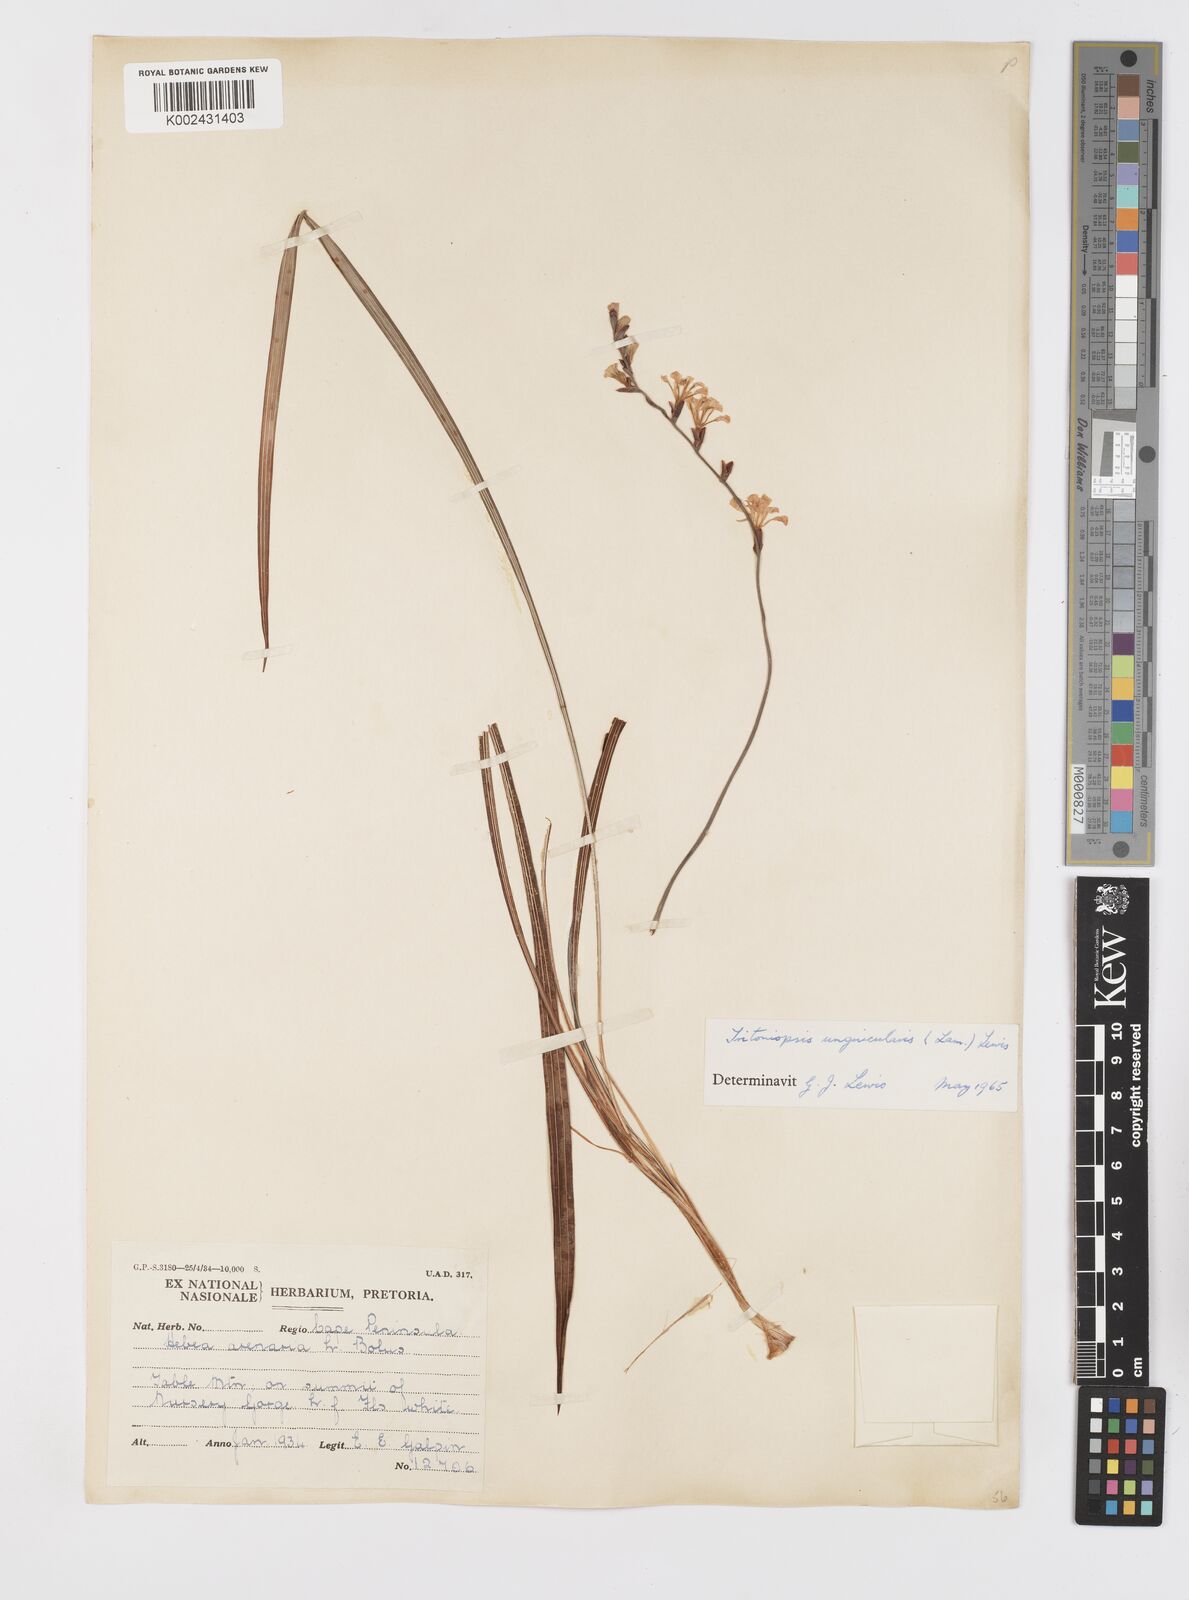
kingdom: Plantae
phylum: Tracheophyta
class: Liliopsida
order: Asparagales
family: Iridaceae
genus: Tritoniopsis
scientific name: Tritoniopsis unguicularis
